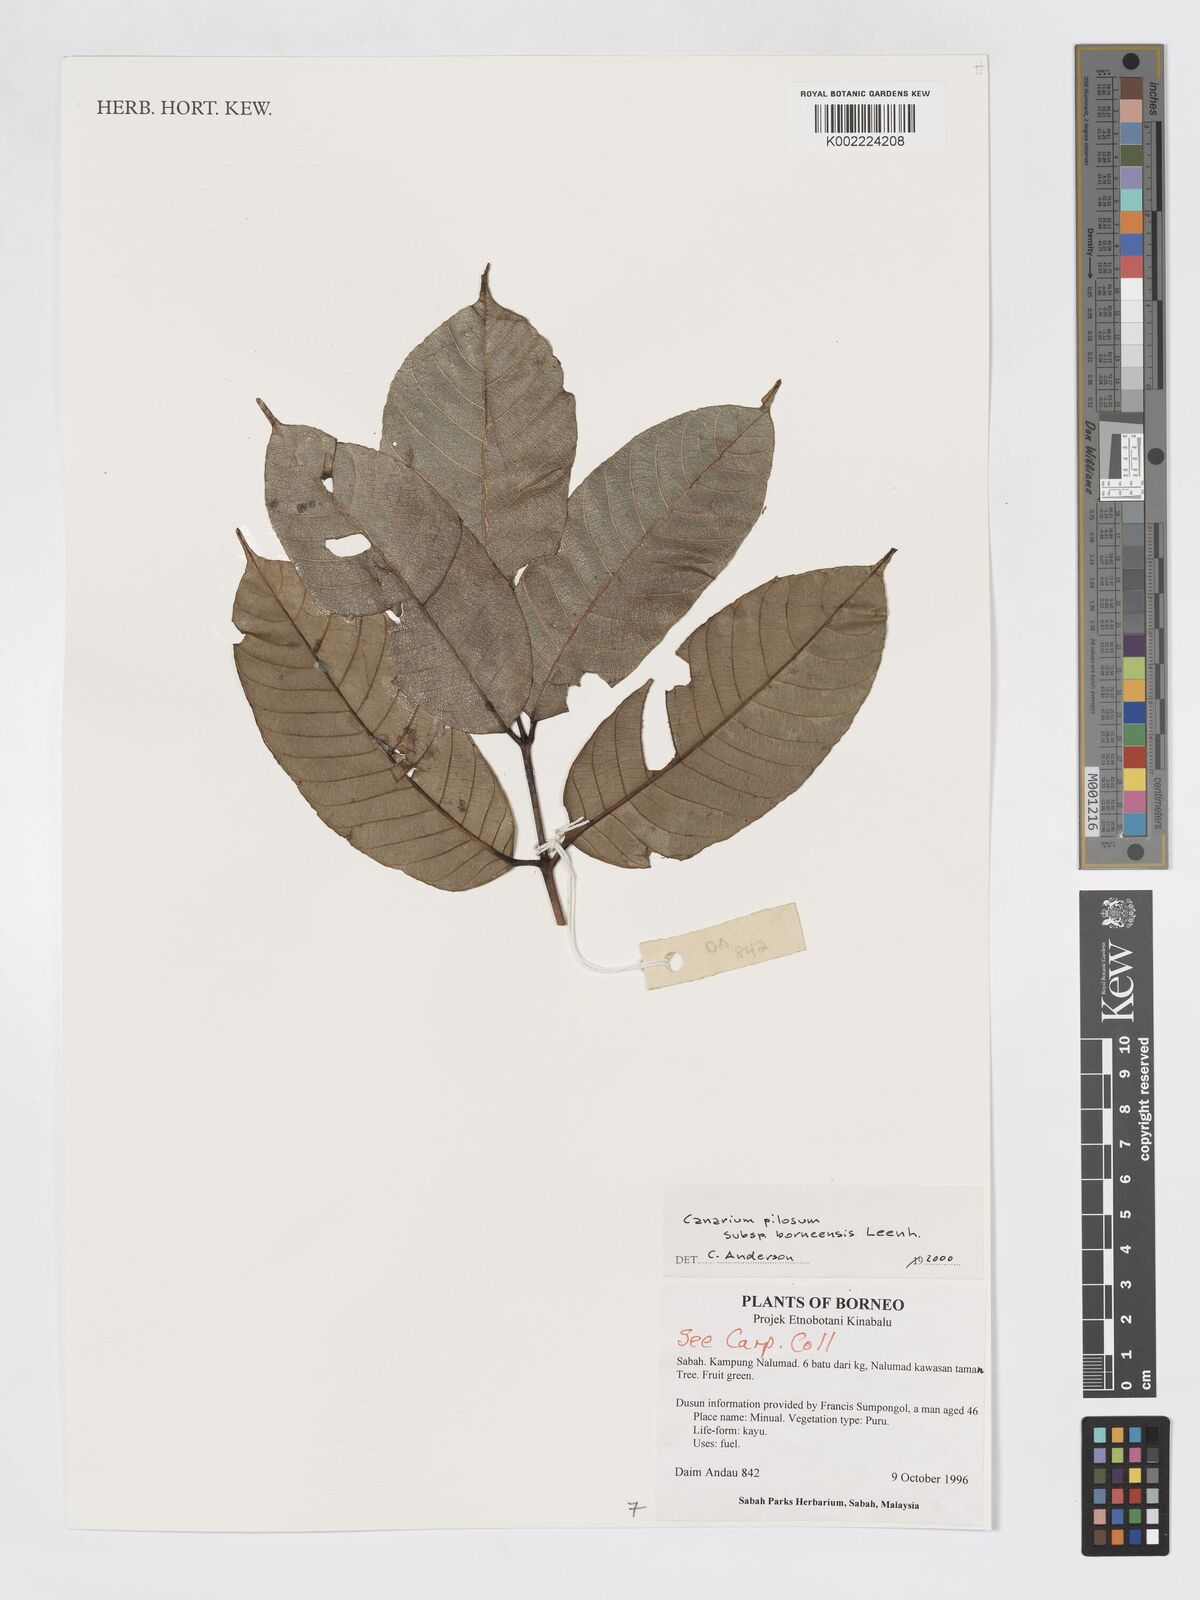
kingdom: Plantae
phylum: Tracheophyta
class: Magnoliopsida
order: Sapindales
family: Burseraceae
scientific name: Burseraceae
